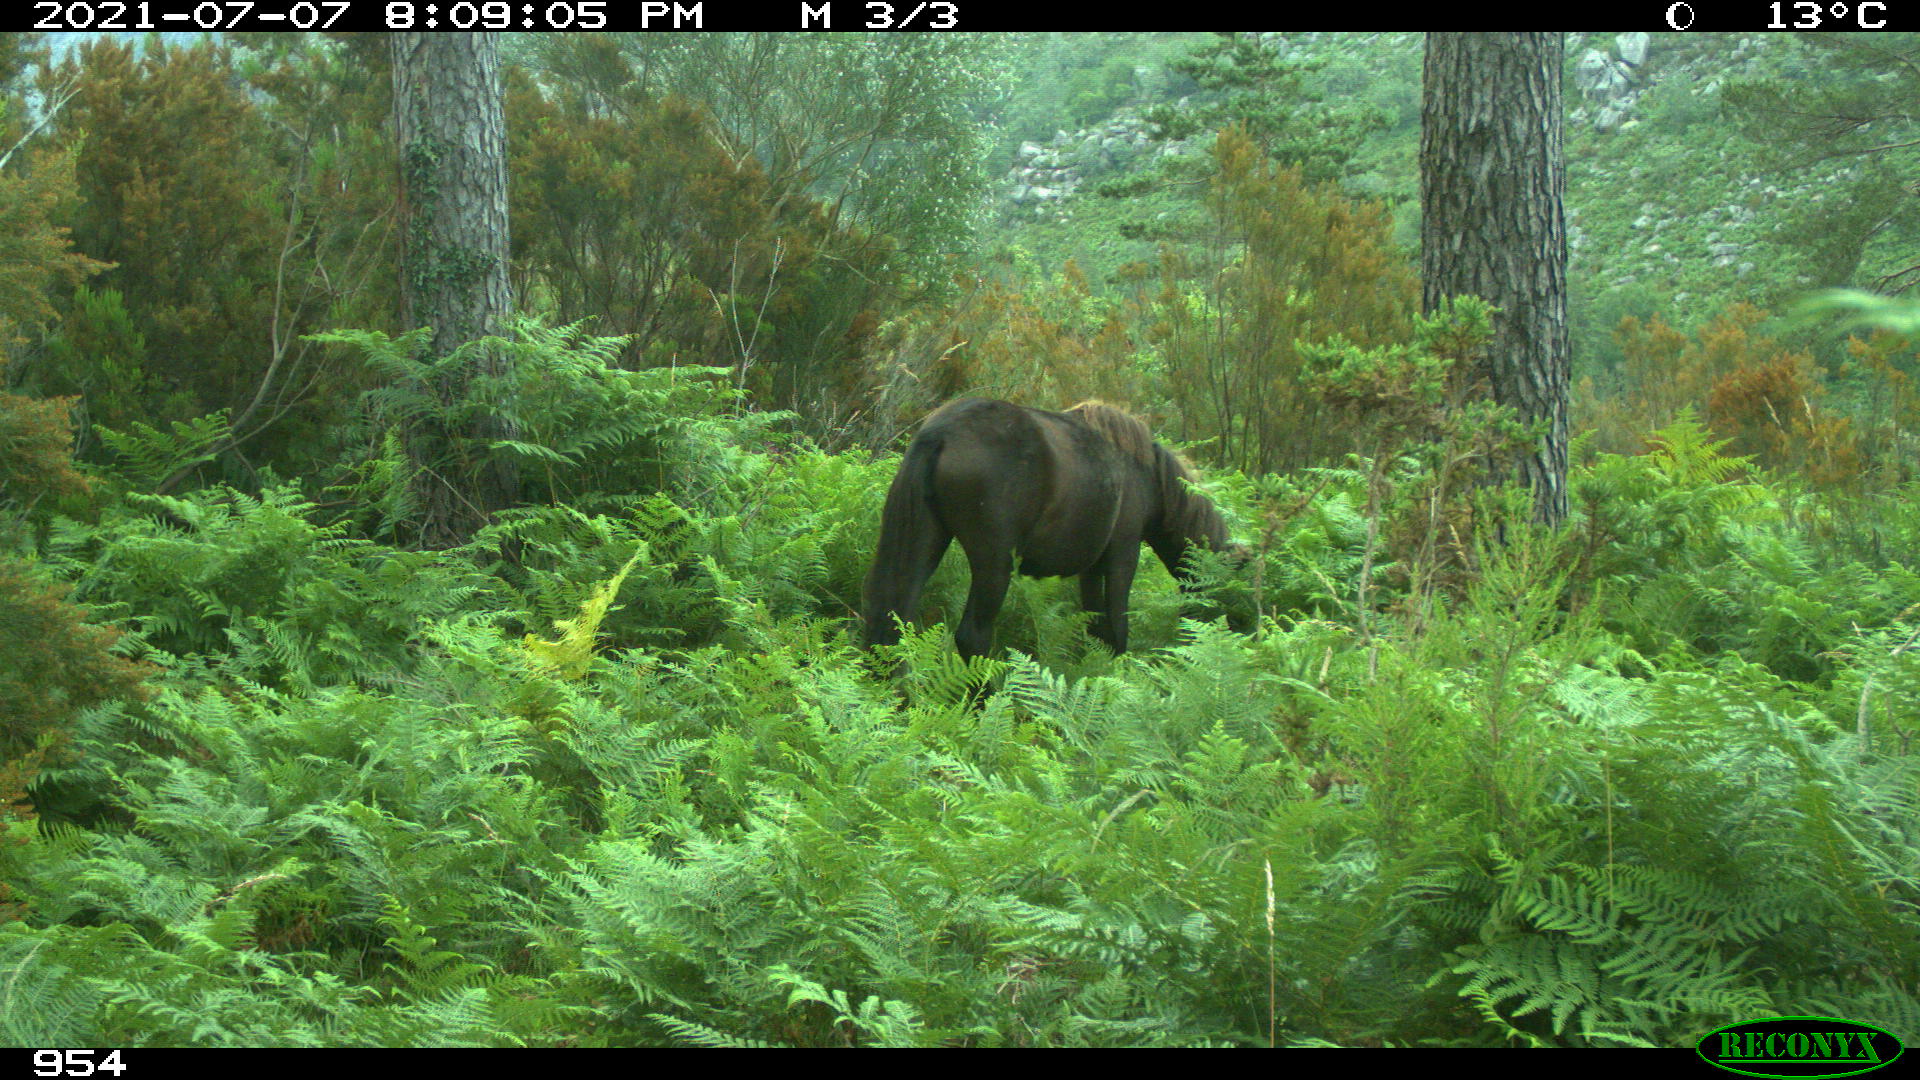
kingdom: Animalia
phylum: Chordata
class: Mammalia
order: Perissodactyla
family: Equidae
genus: Equus
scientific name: Equus caballus
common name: Horse
